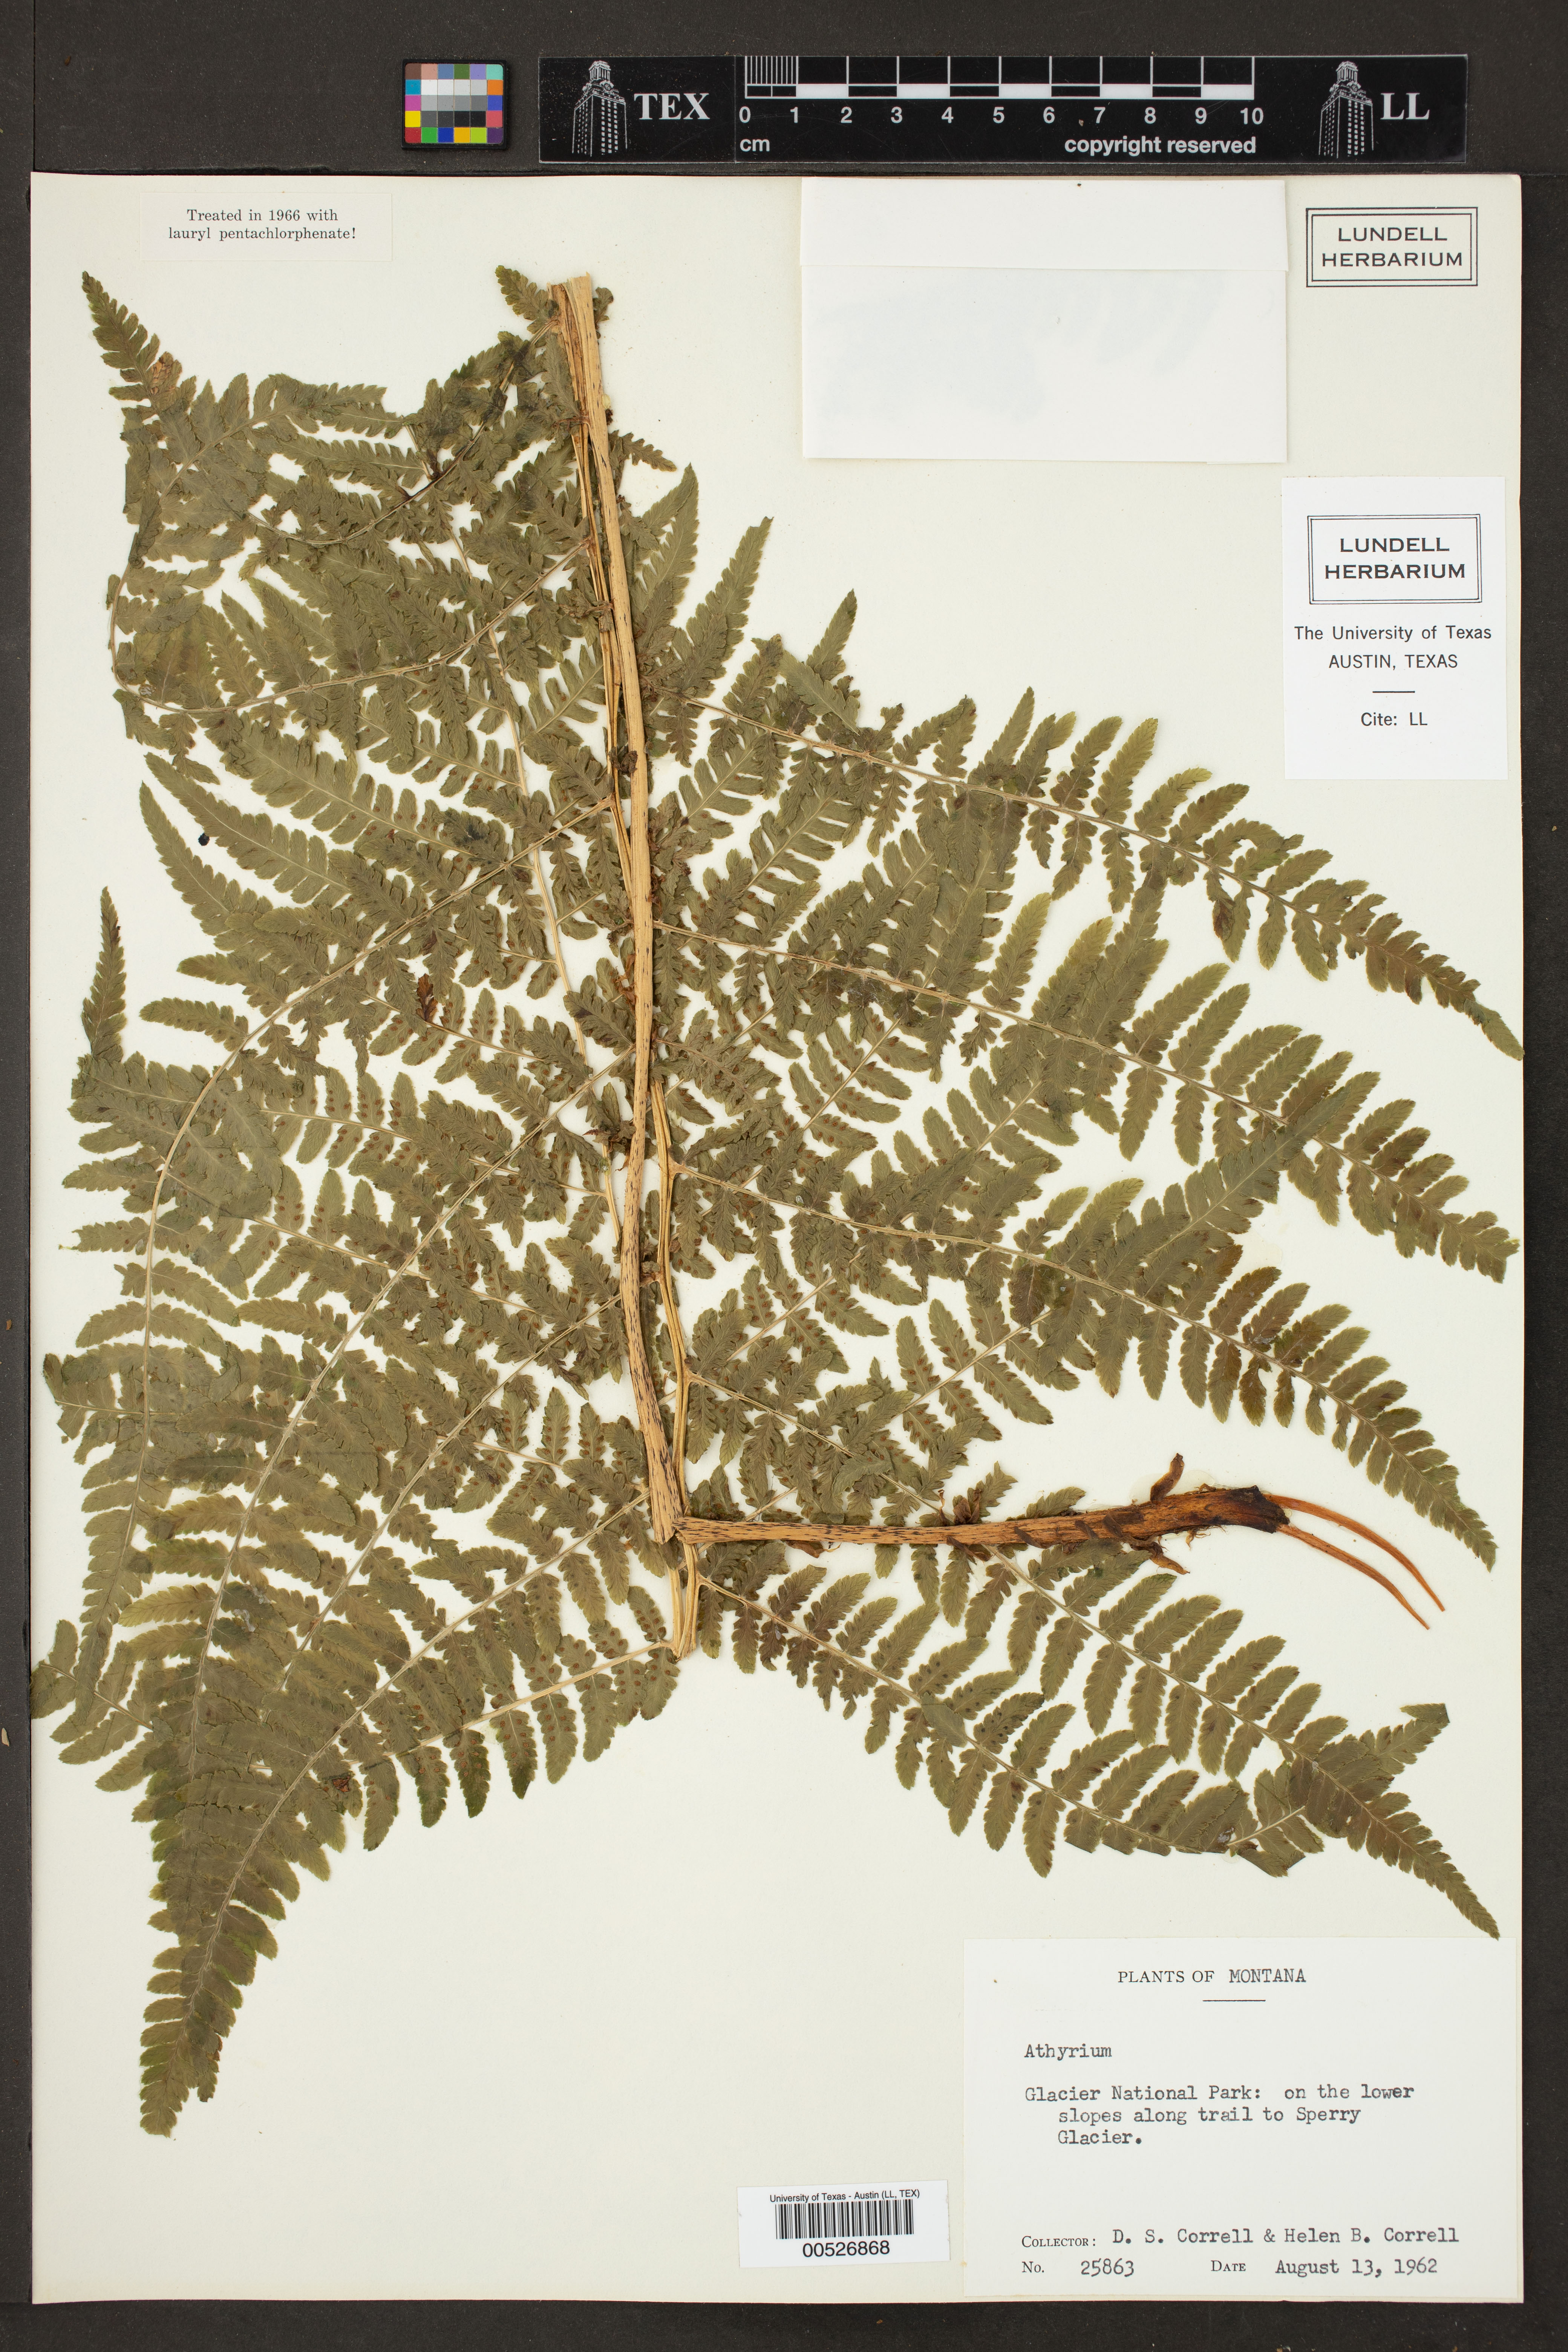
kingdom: Plantae
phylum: Tracheophyta
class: Polypodiopsida
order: Polypodiales
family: Athyriaceae
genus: Athyrium
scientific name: Athyrium
